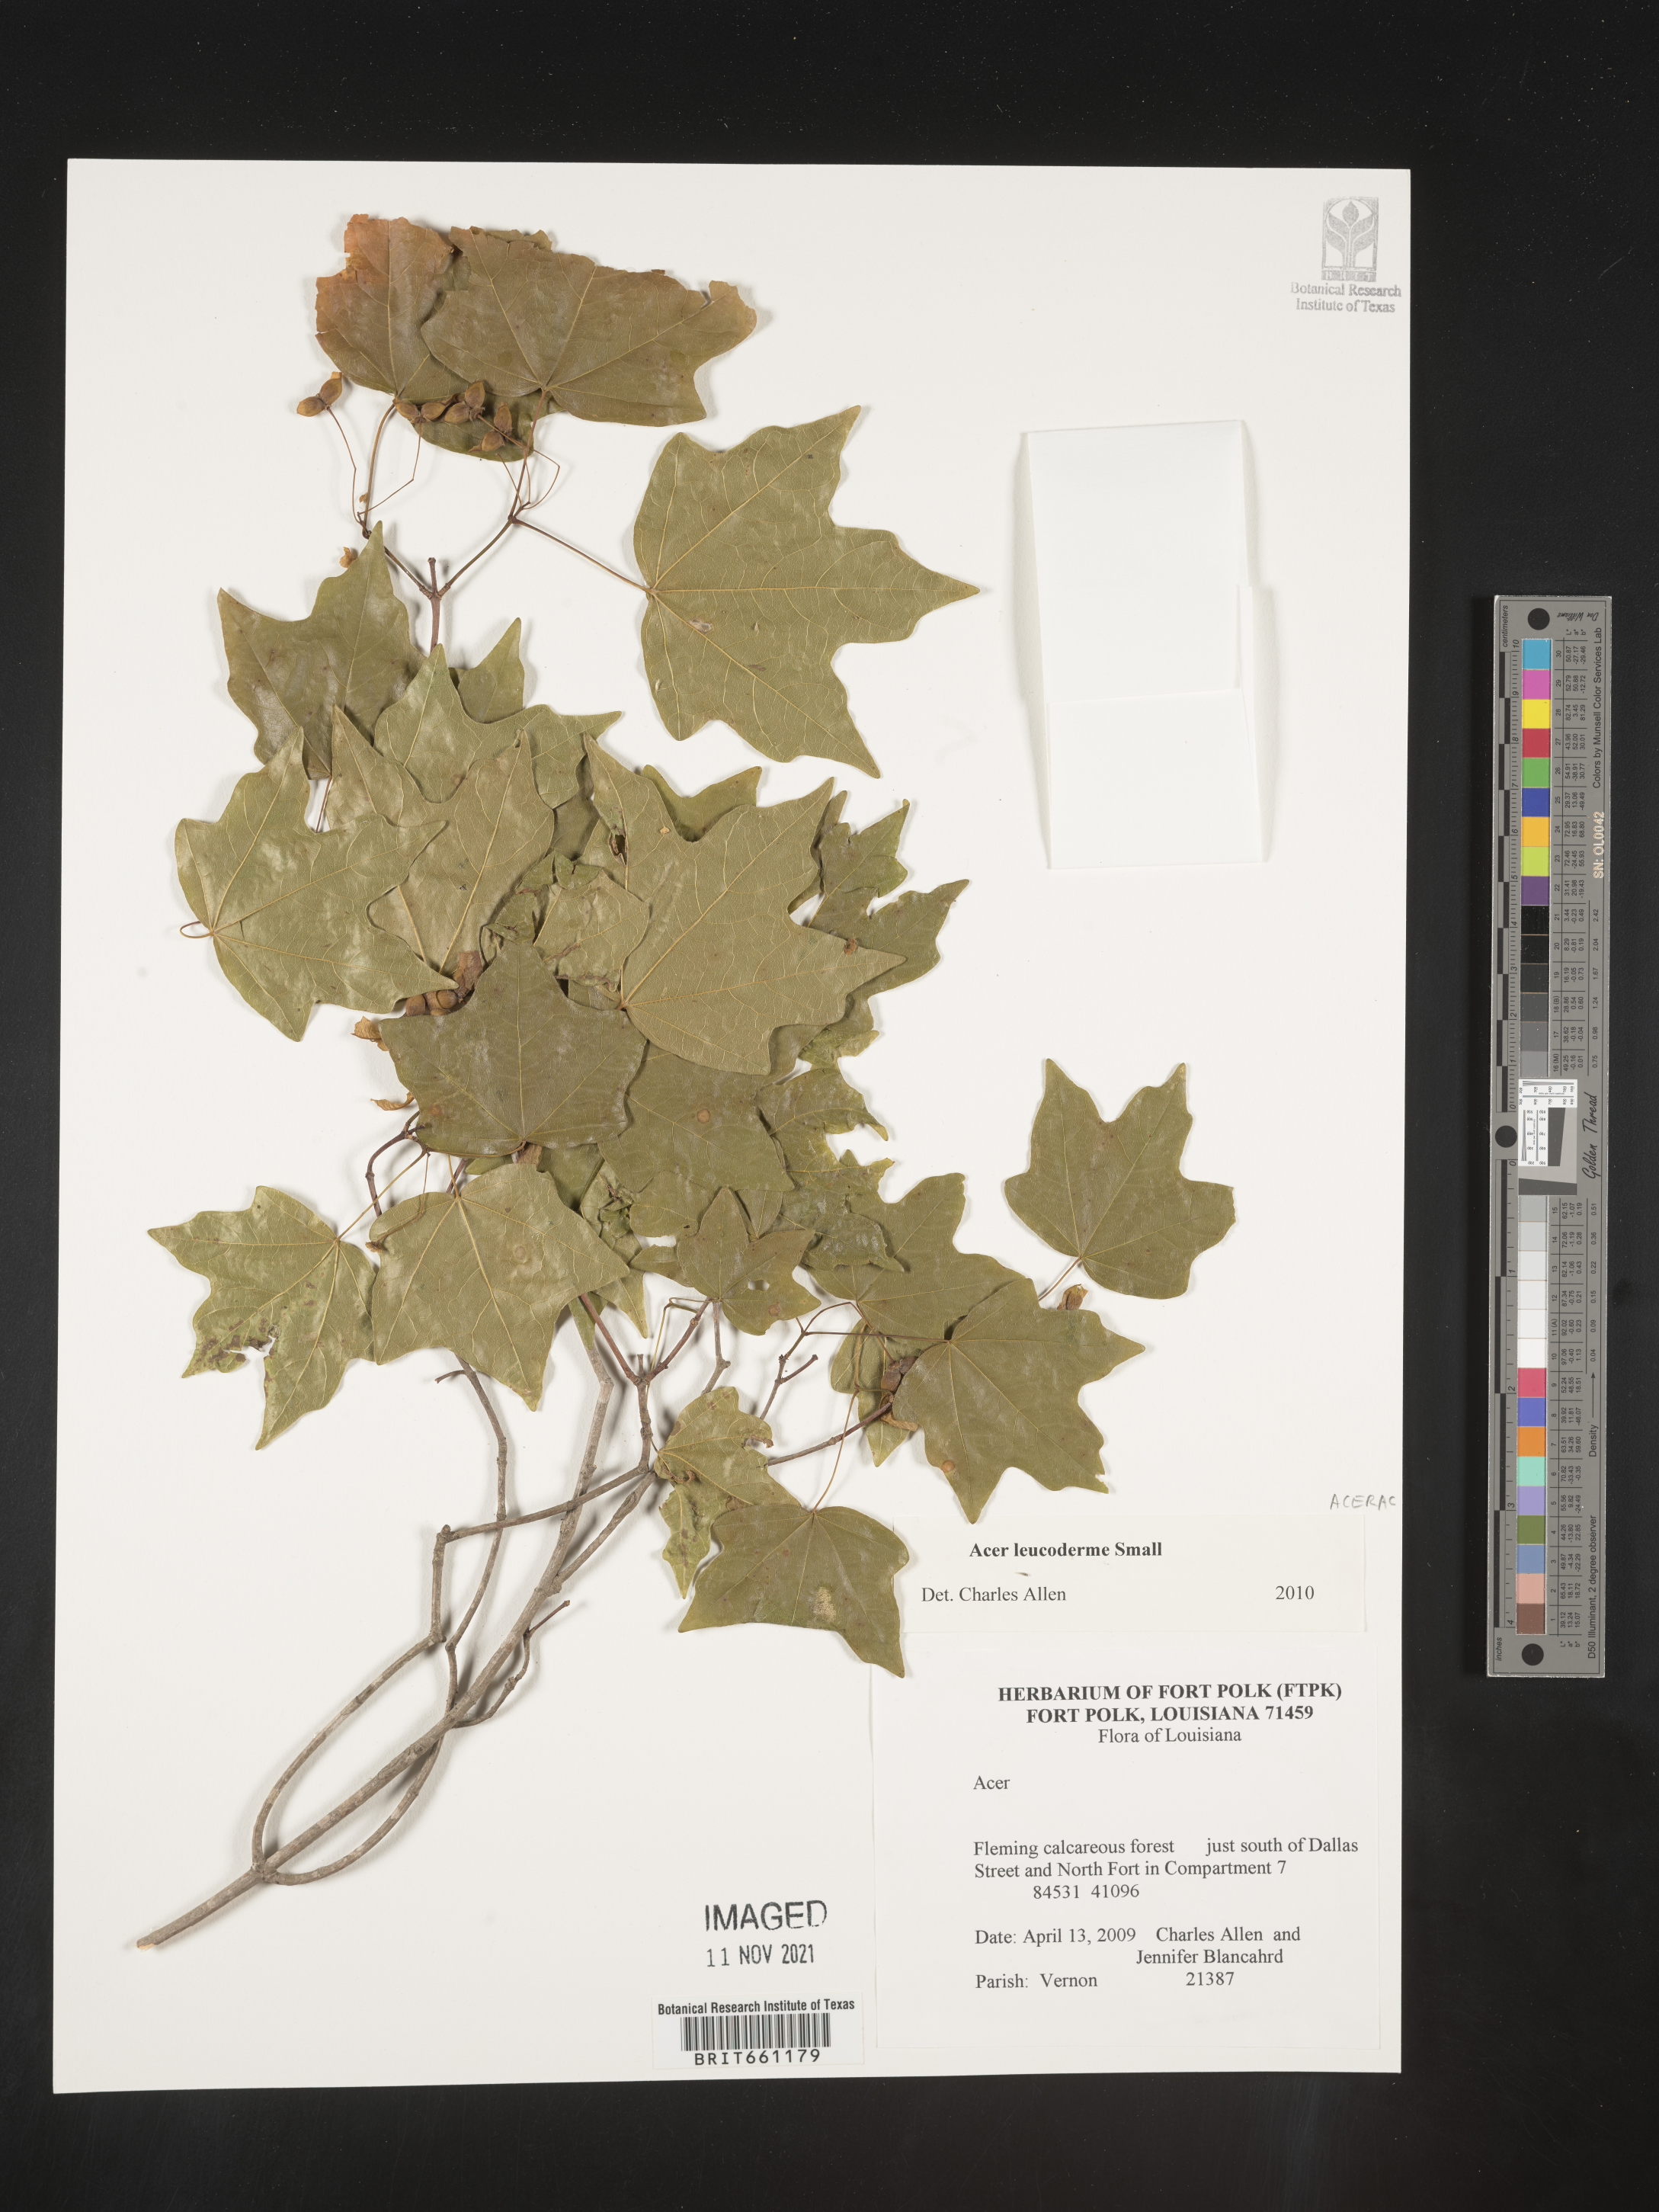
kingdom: Plantae
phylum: Tracheophyta
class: Magnoliopsida
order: Sapindales
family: Sapindaceae
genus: Acer
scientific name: Acer leucoderme
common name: Chalk maple
